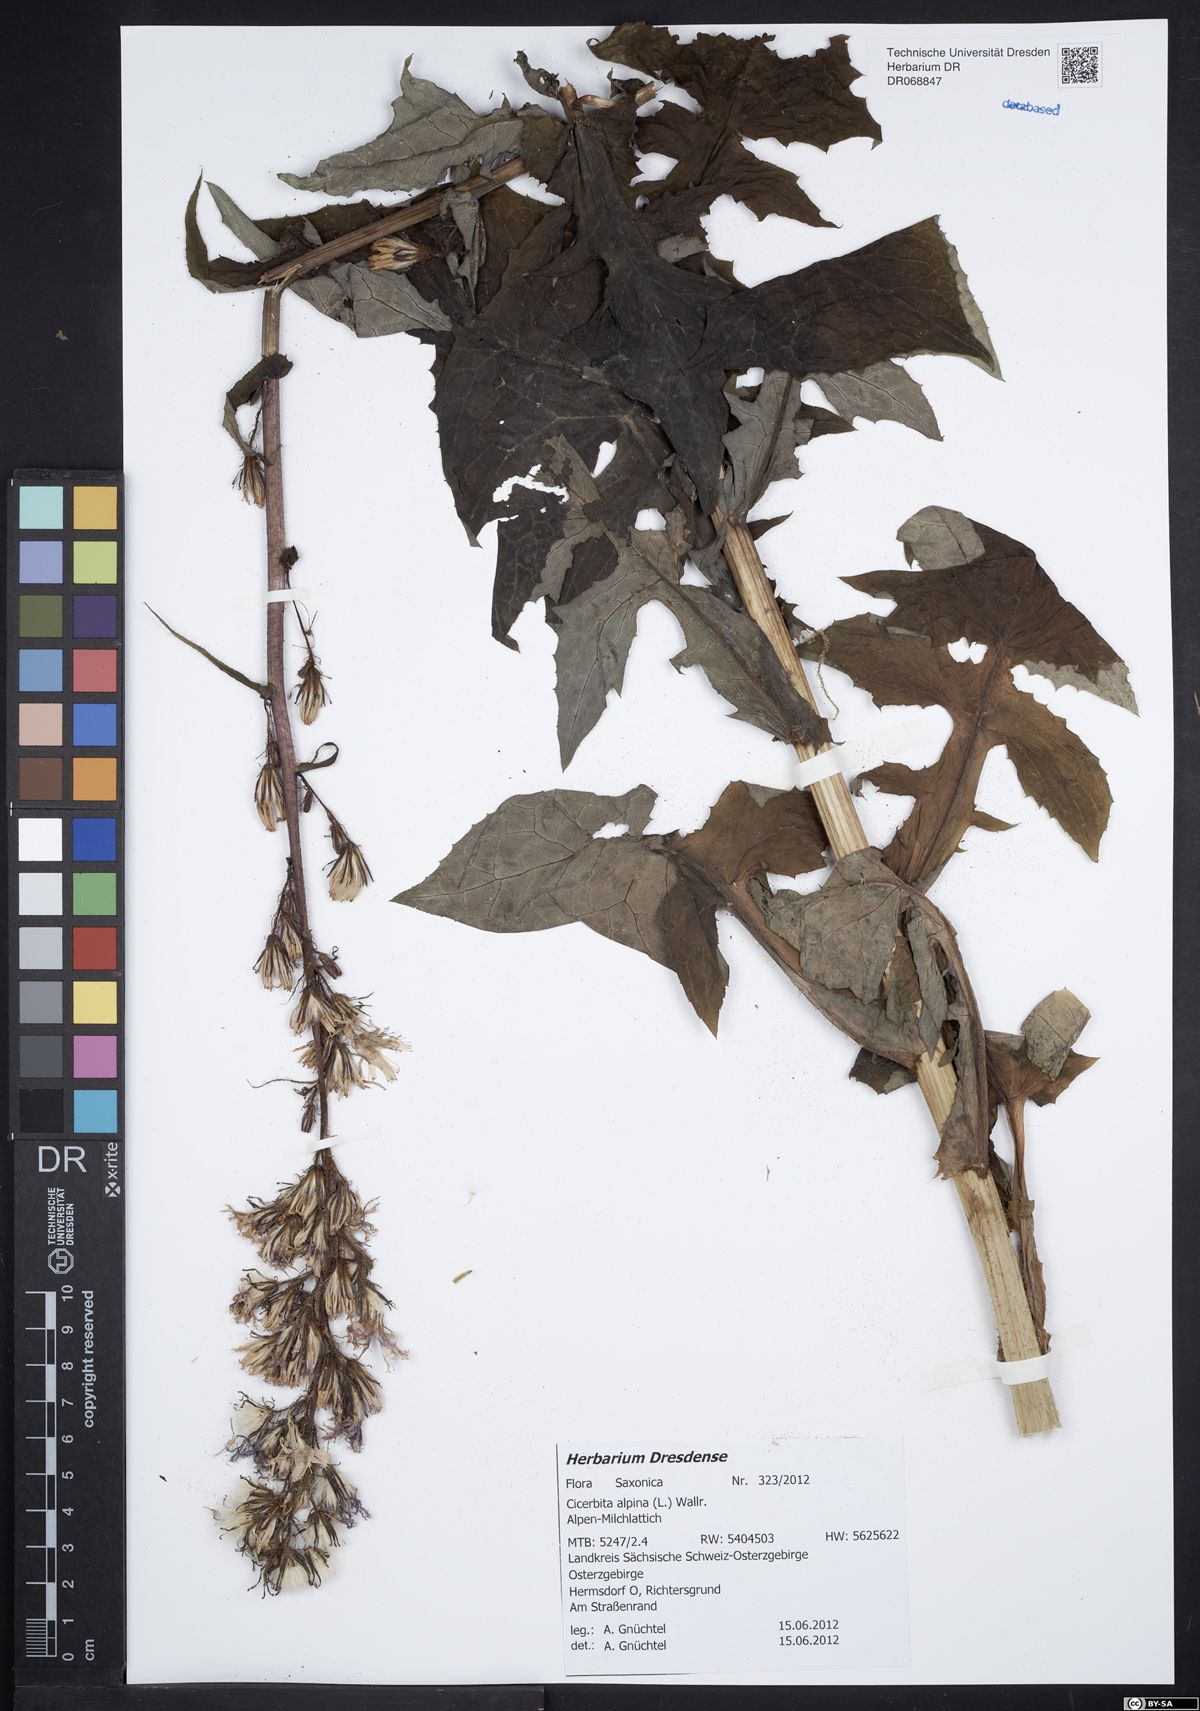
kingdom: Plantae
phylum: Tracheophyta
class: Magnoliopsida
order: Asterales
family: Asteraceae
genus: Cicerbita
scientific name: Cicerbita alpina
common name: Alpine blue-sow-thistle
